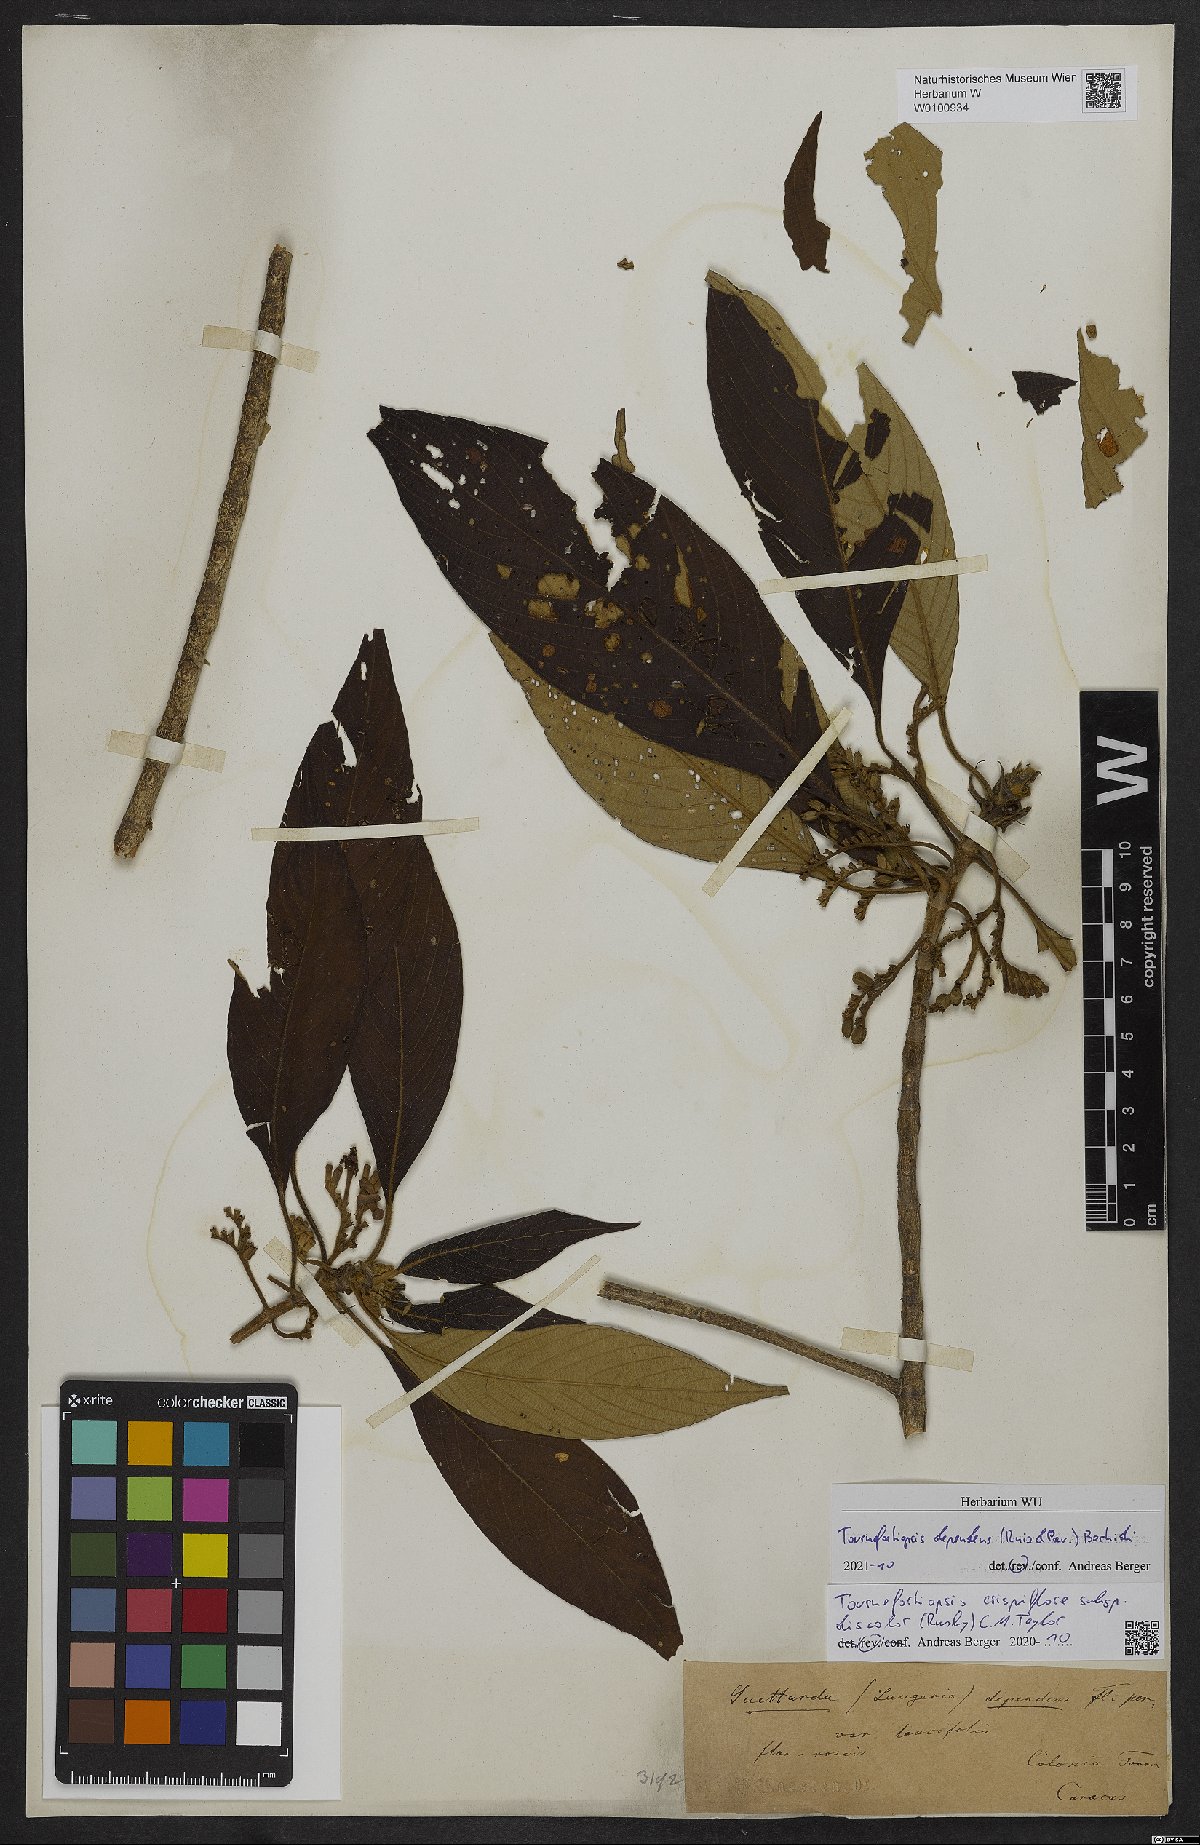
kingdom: Plantae
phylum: Tracheophyta
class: Magnoliopsida
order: Gentianales
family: Rubiaceae
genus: Tournefortiopsis
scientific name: Tournefortiopsis dependens
